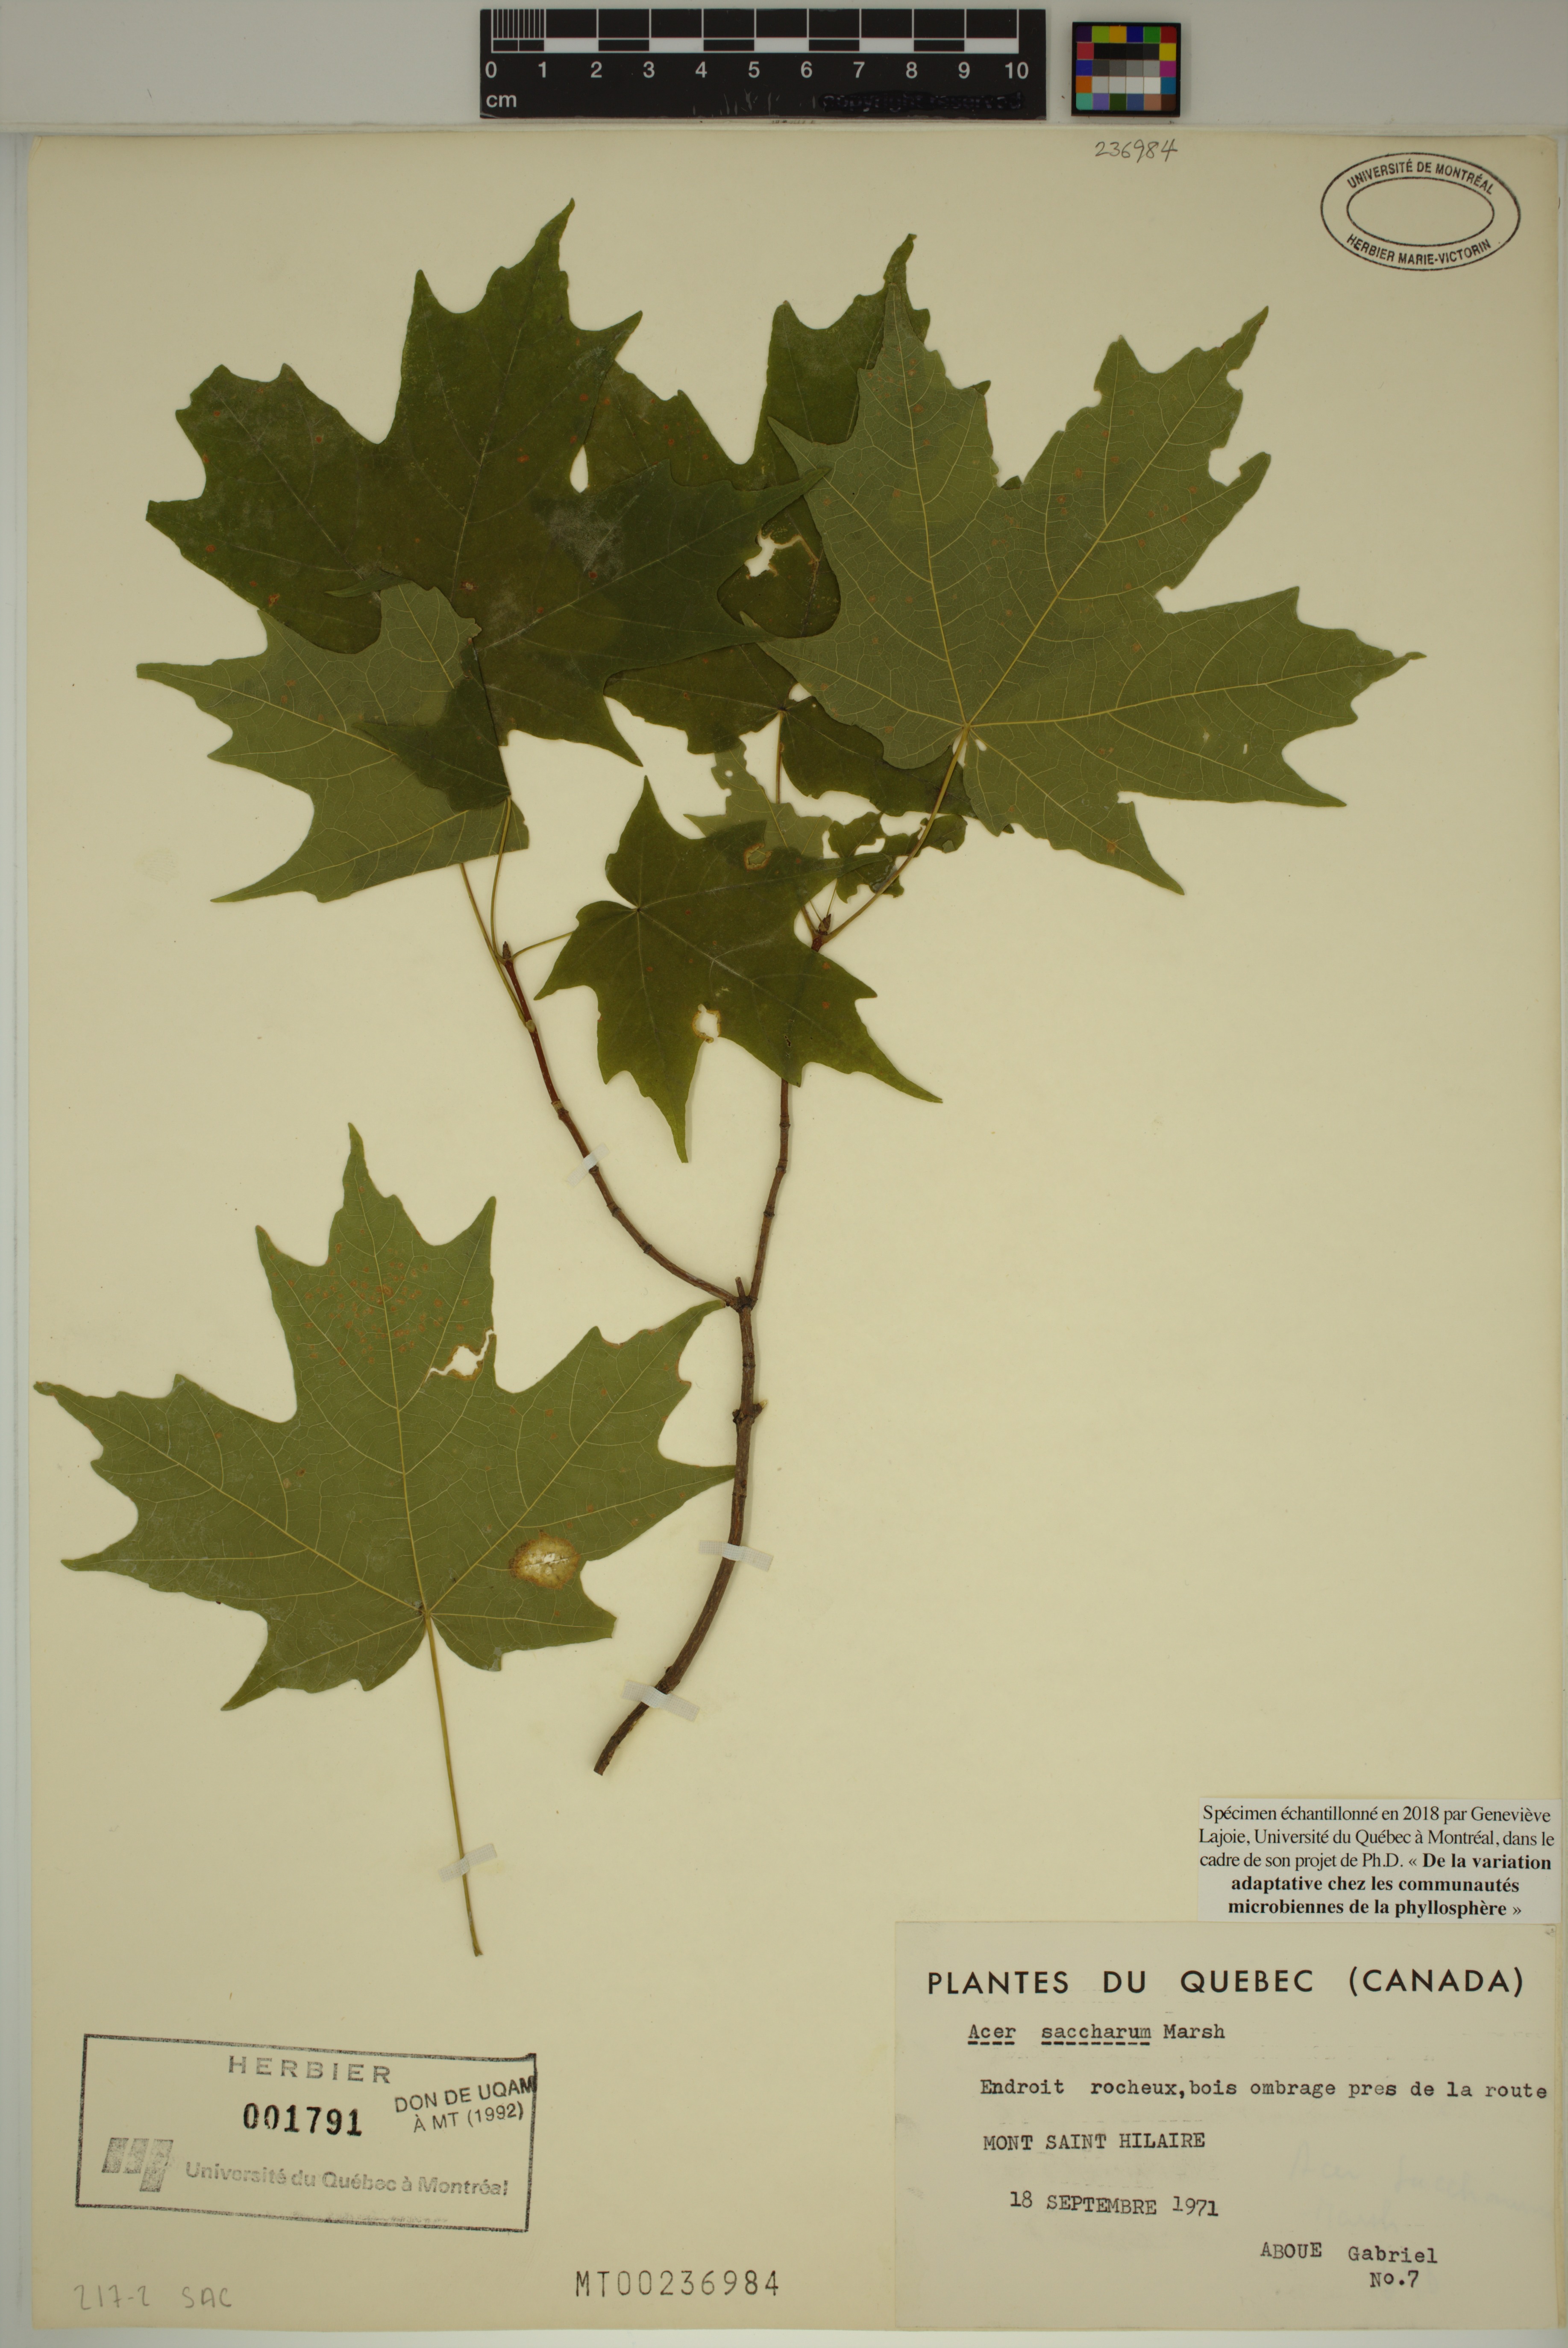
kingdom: Plantae
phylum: Tracheophyta
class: Magnoliopsida
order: Sapindales
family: Sapindaceae
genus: Acer
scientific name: Acer saccharum
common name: Sugar maple
